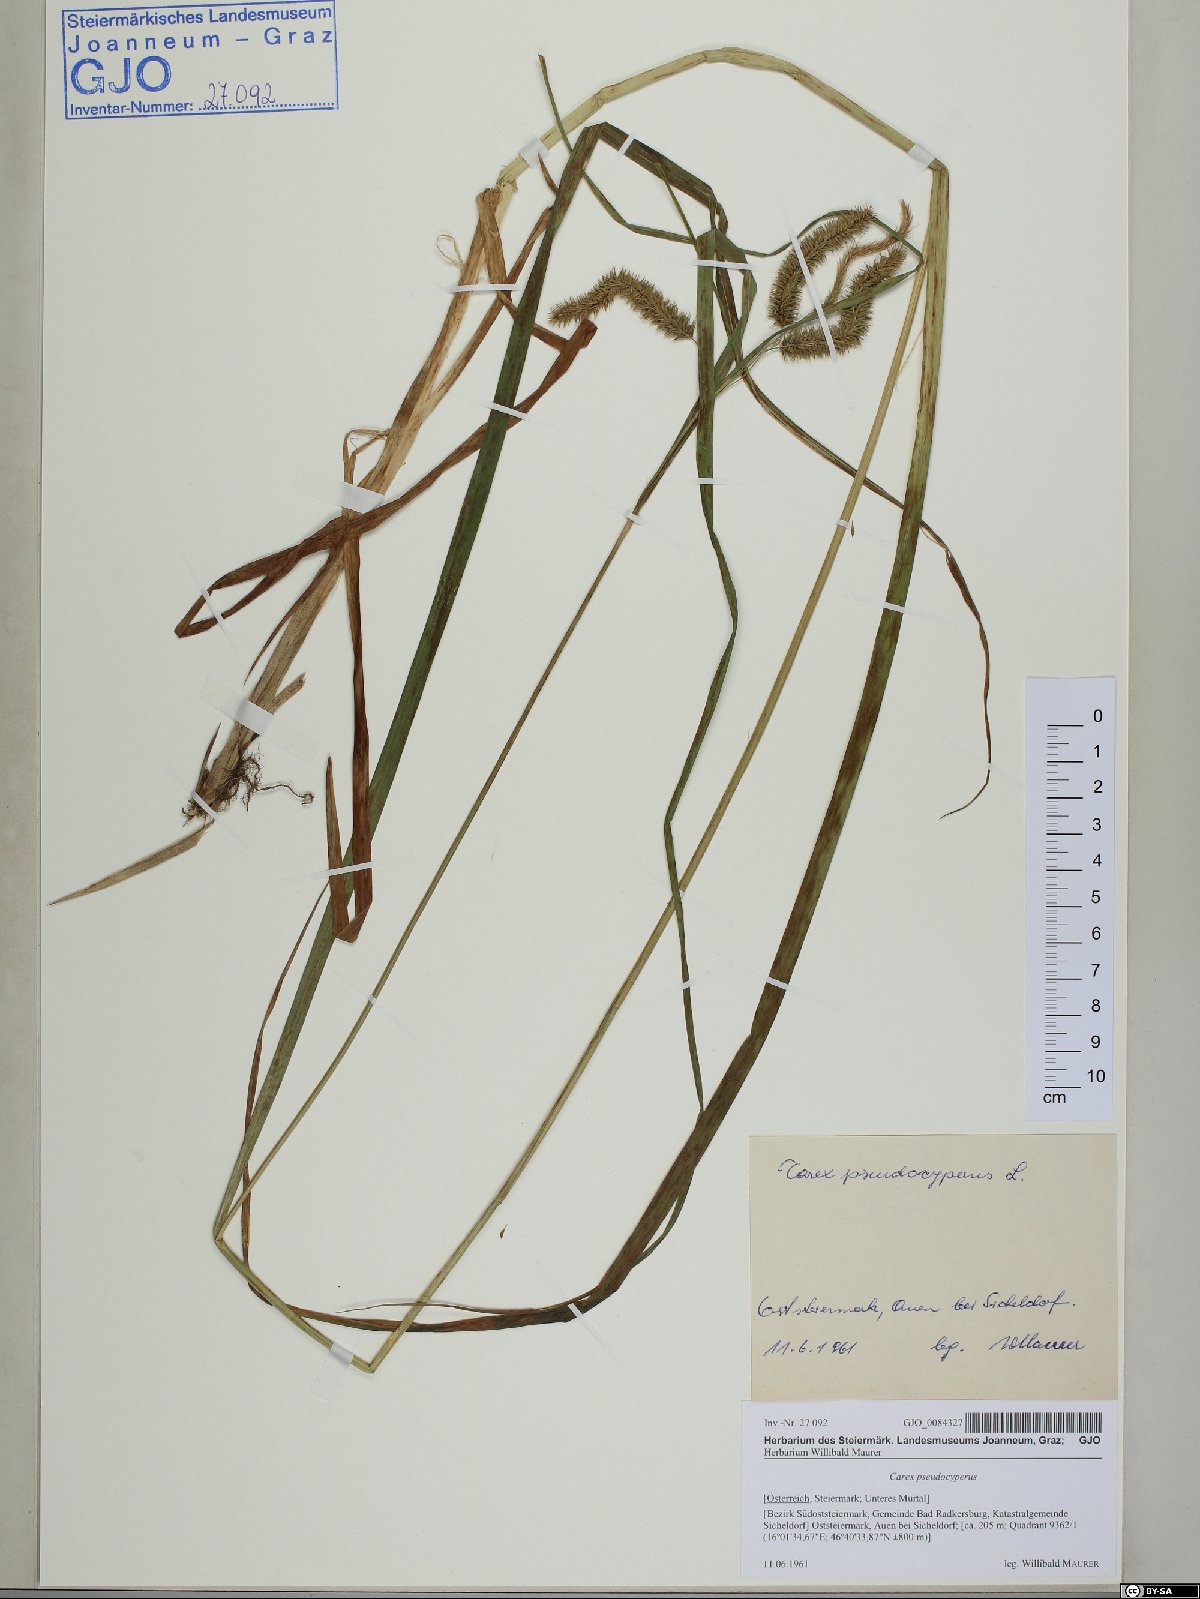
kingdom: Plantae
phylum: Tracheophyta
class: Liliopsida
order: Poales
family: Cyperaceae
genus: Carex
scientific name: Carex pseudocyperus
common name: Cyperus sedge
